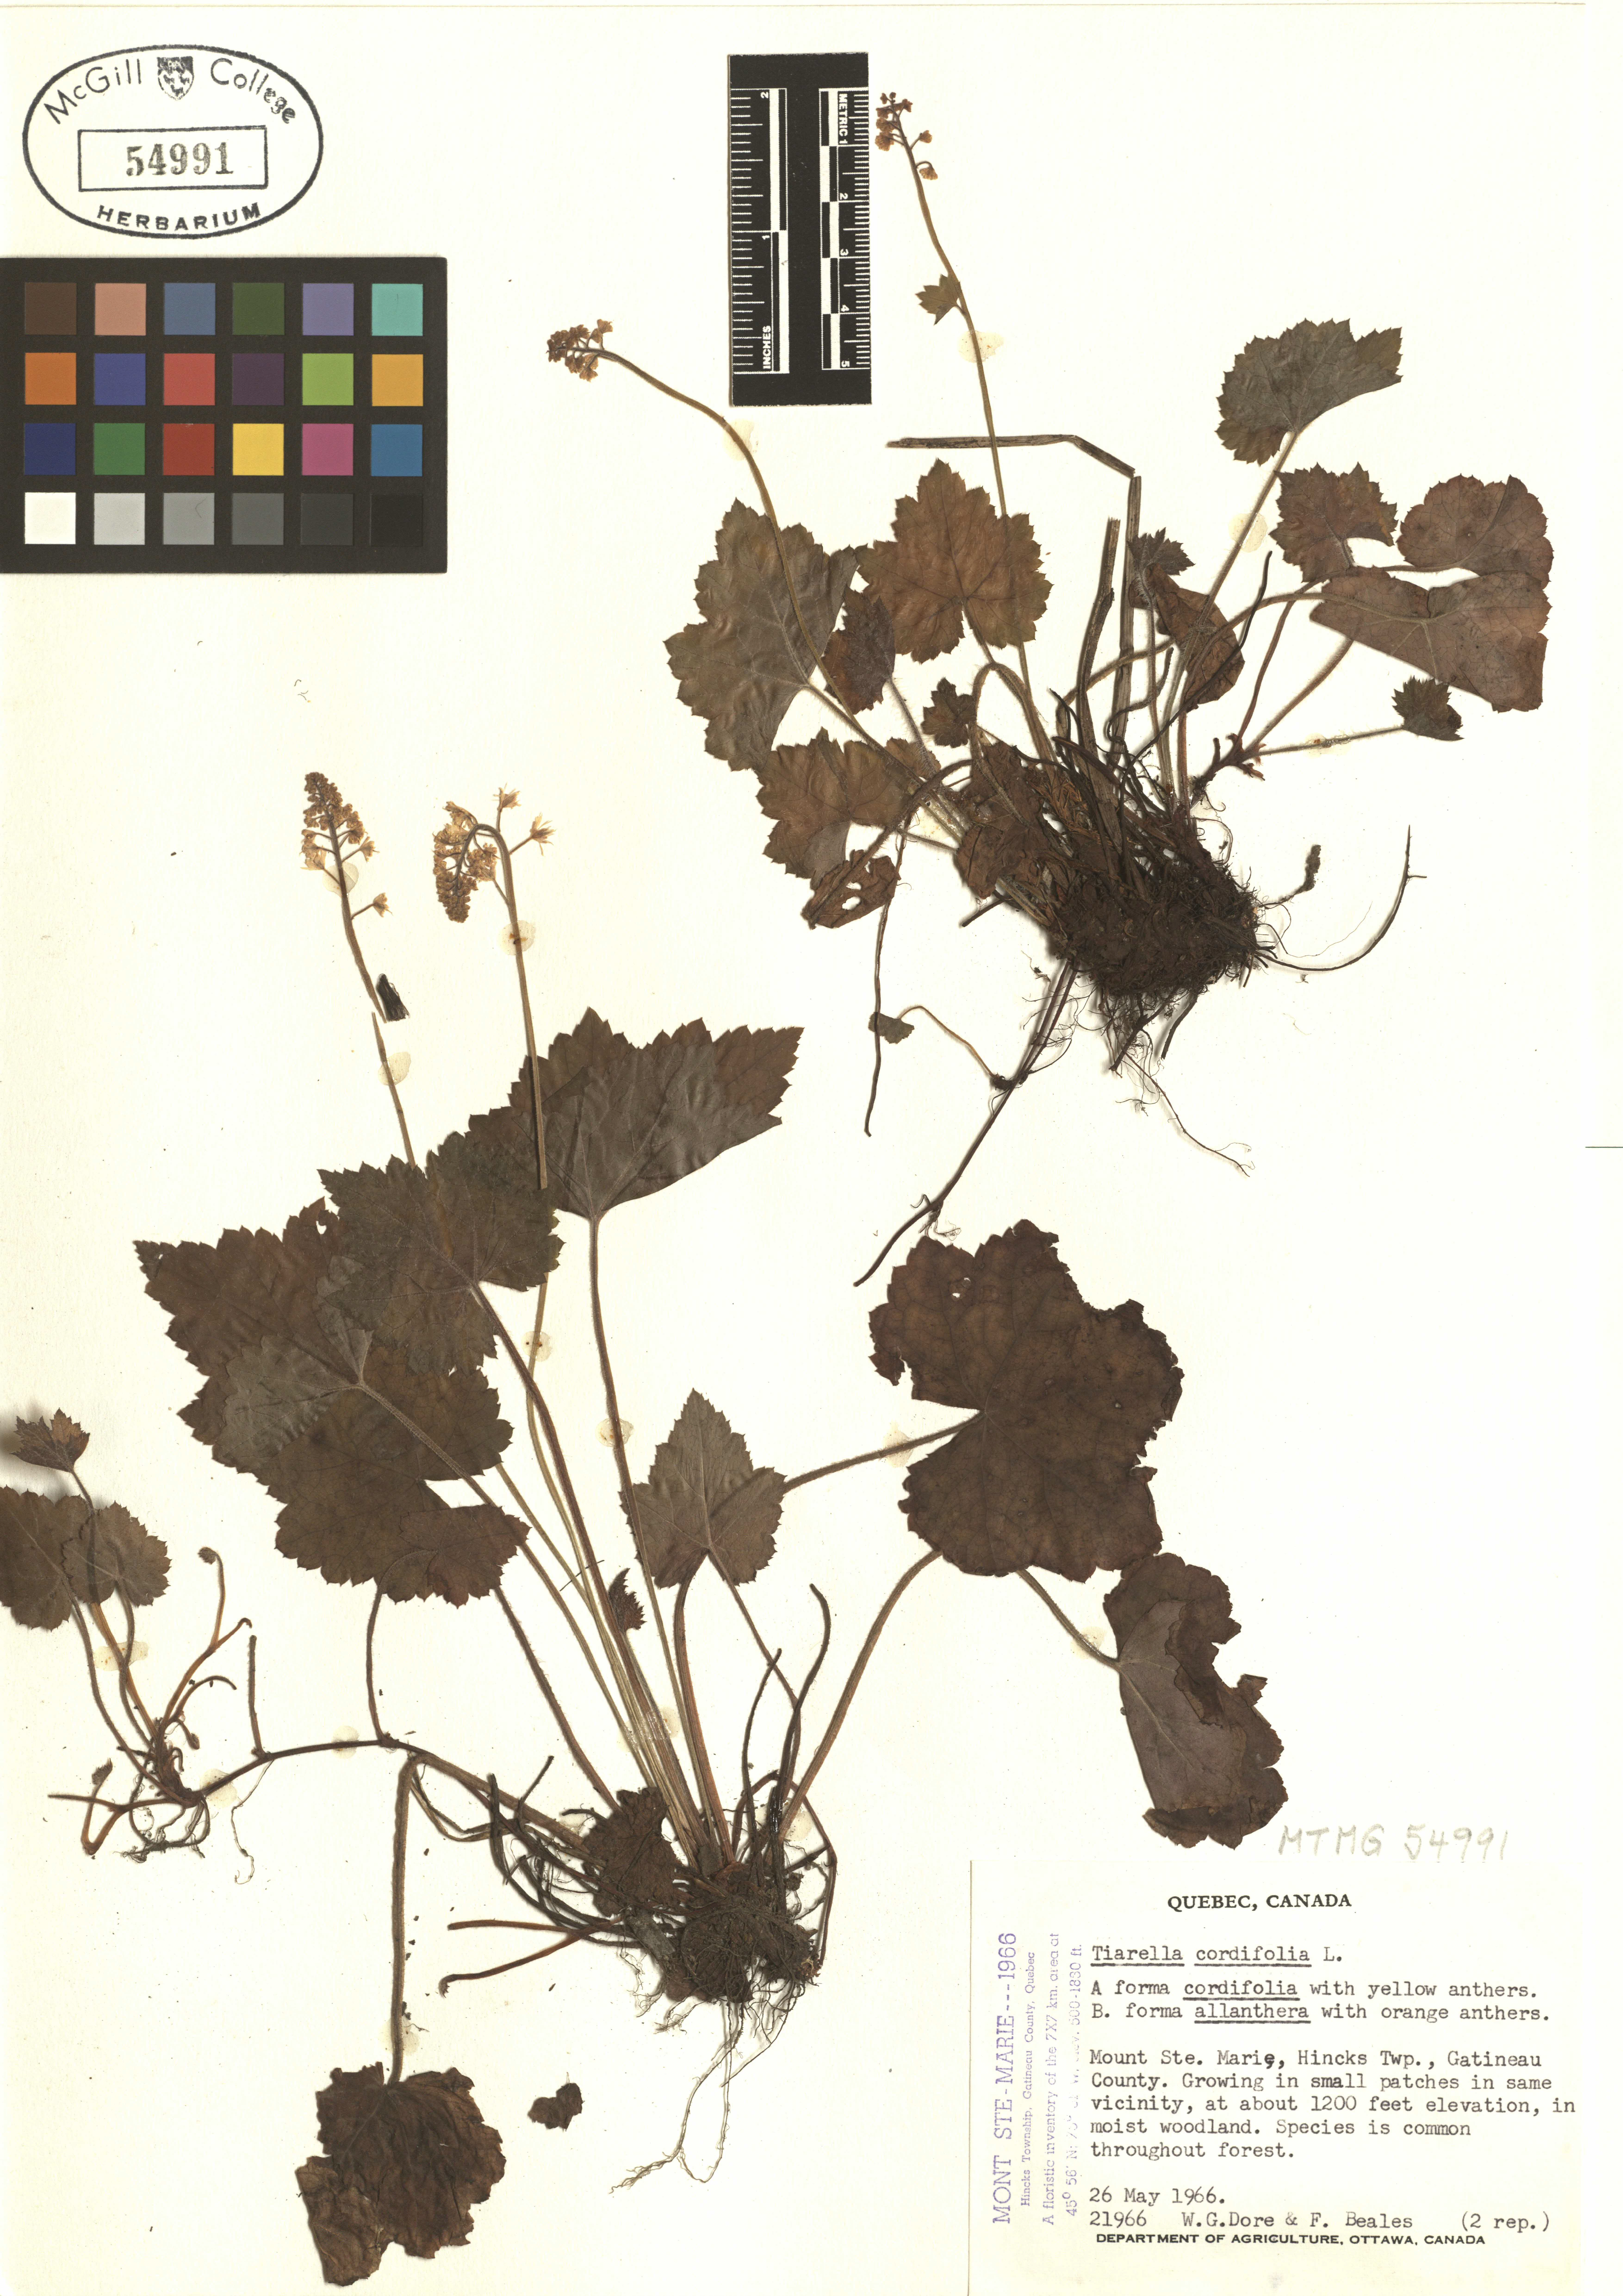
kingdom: Plantae
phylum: Tracheophyta
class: Magnoliopsida
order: Saxifragales
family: Saxifragaceae
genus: Tiarella
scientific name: Tiarella cordifolia
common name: Foamflower
